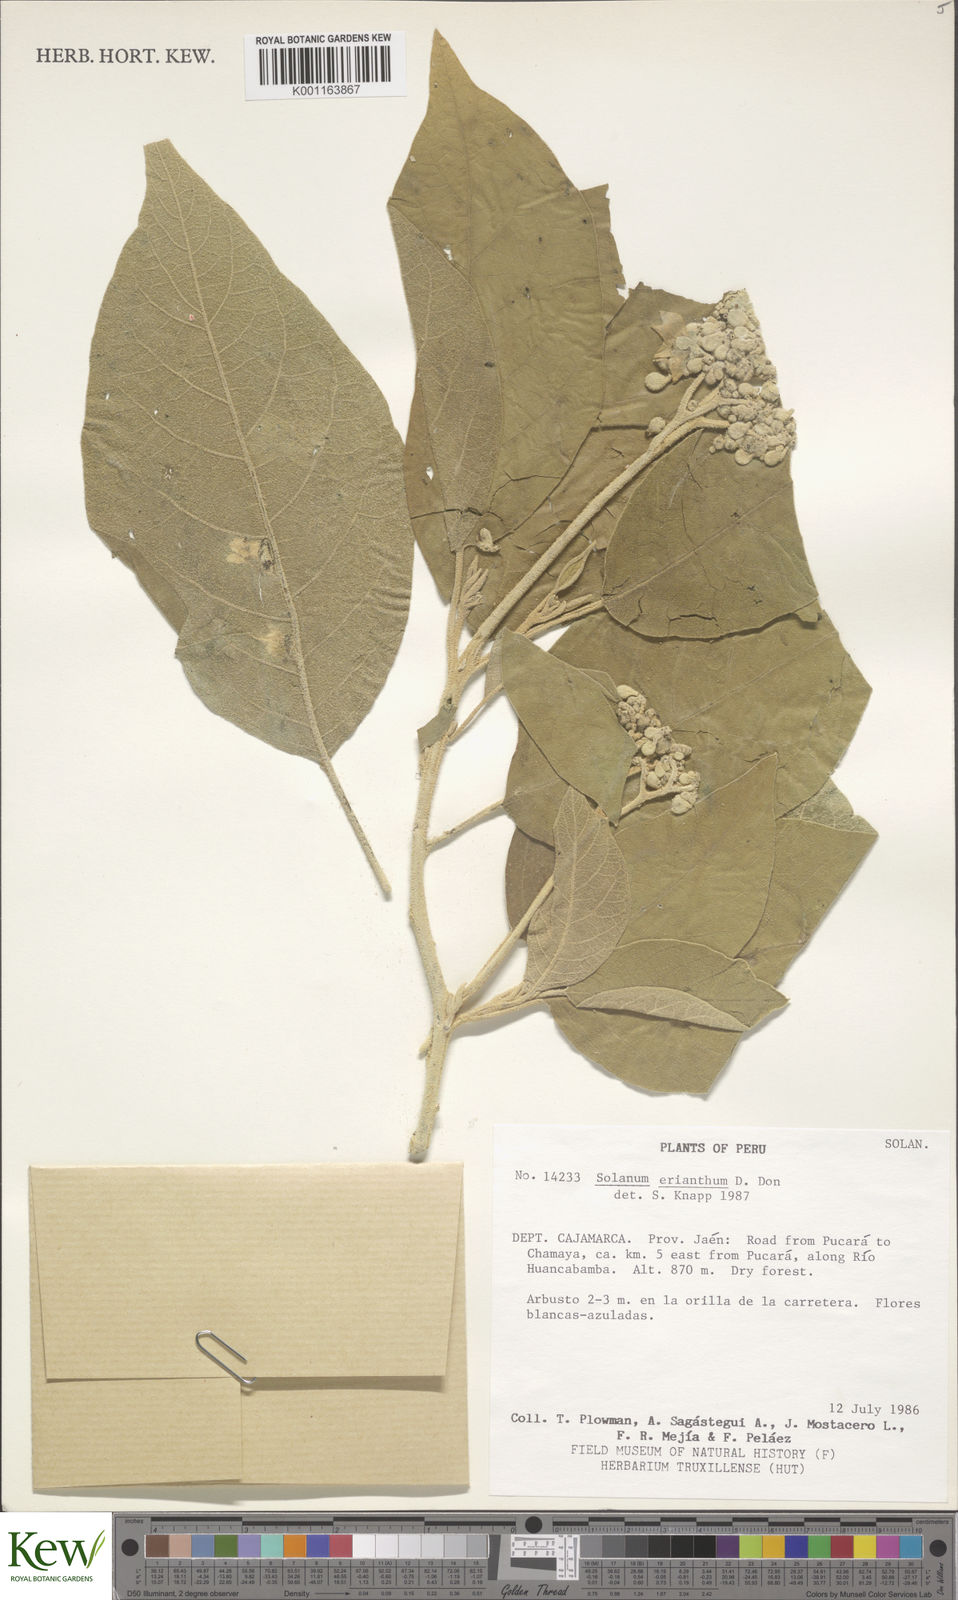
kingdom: Plantae
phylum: Tracheophyta
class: Magnoliopsida
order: Solanales
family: Solanaceae
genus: Solanum
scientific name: Solanum erianthum
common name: Tobacco-tree
